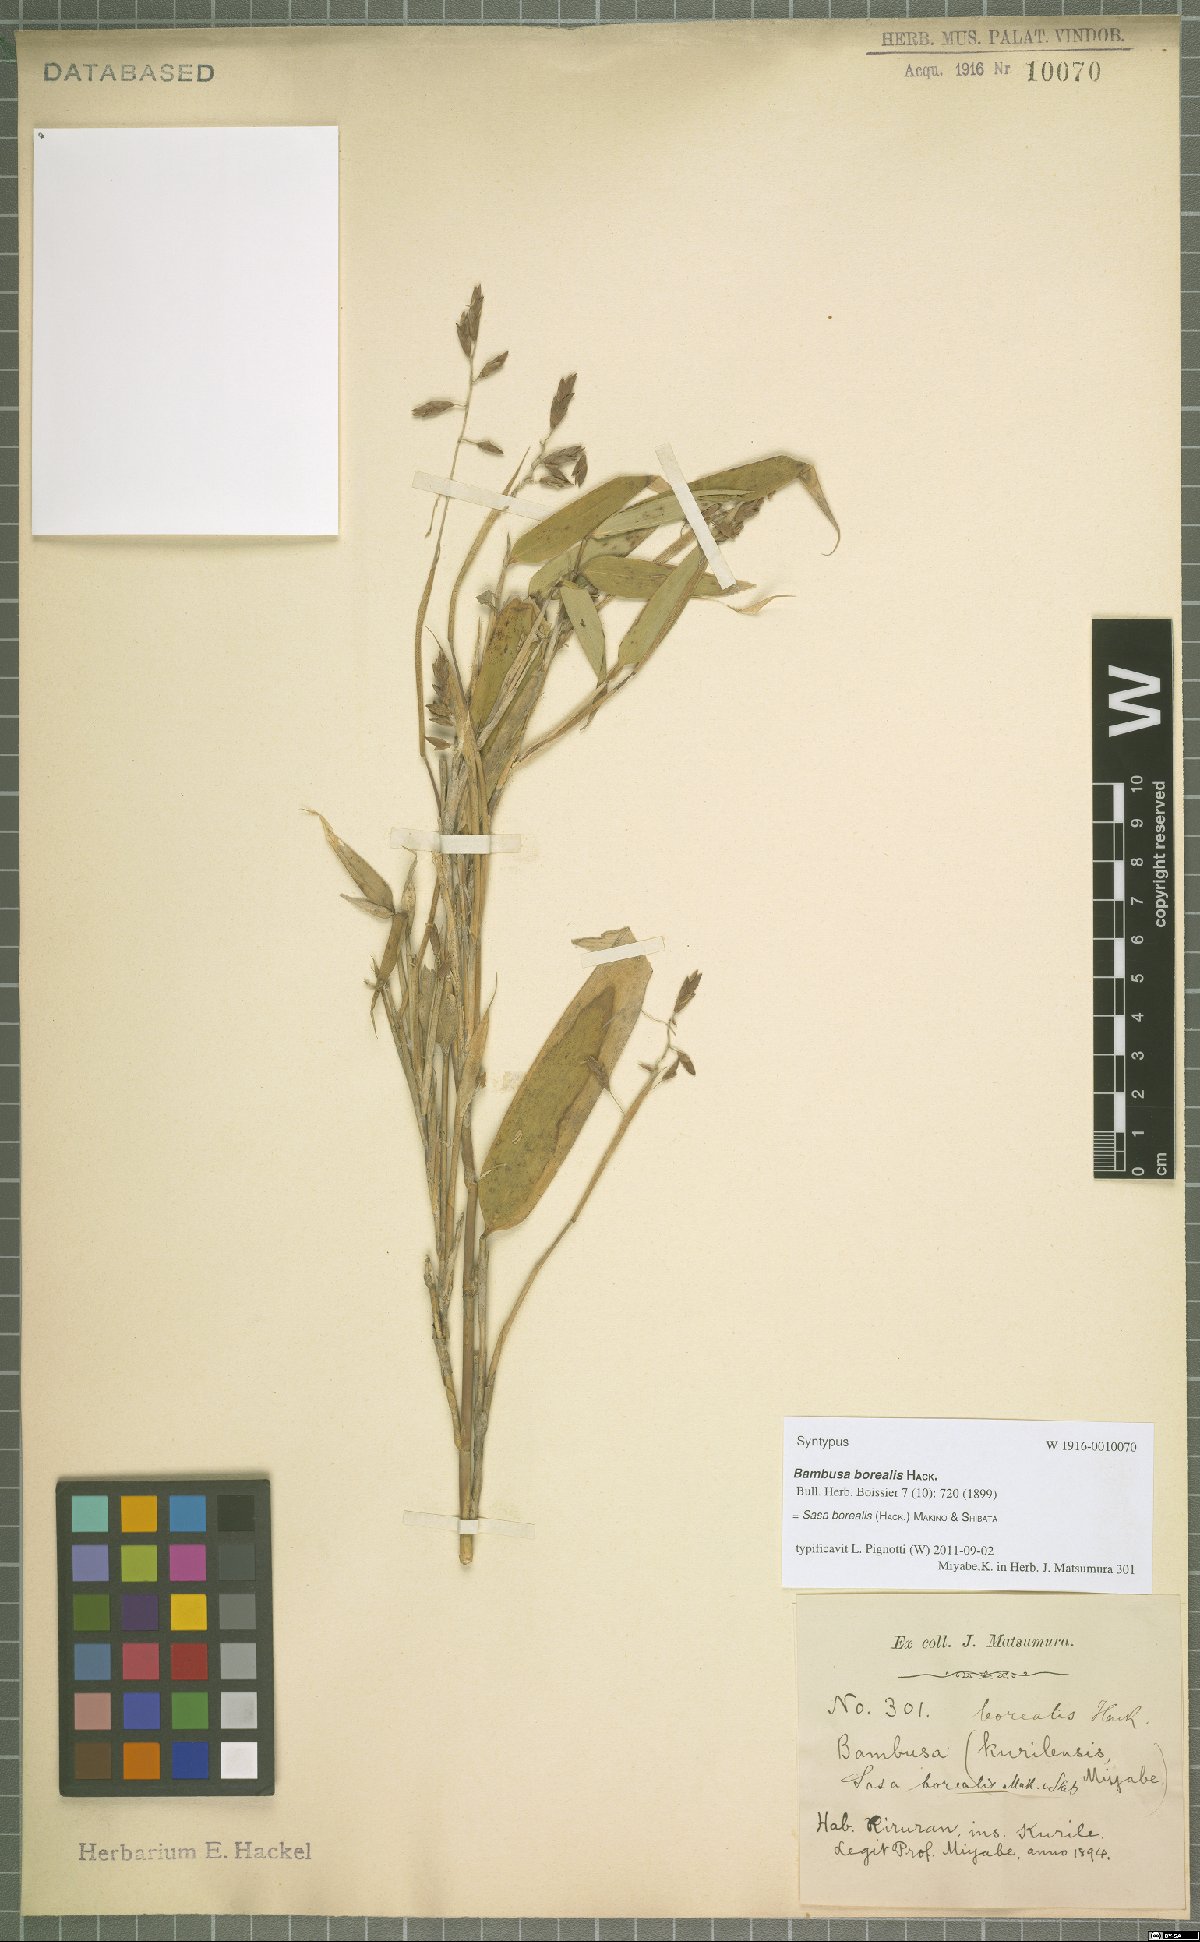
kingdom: Plantae
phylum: Tracheophyta
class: Liliopsida
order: Poales
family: Poaceae
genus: Sasamorpha
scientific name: Sasamorpha borealis
